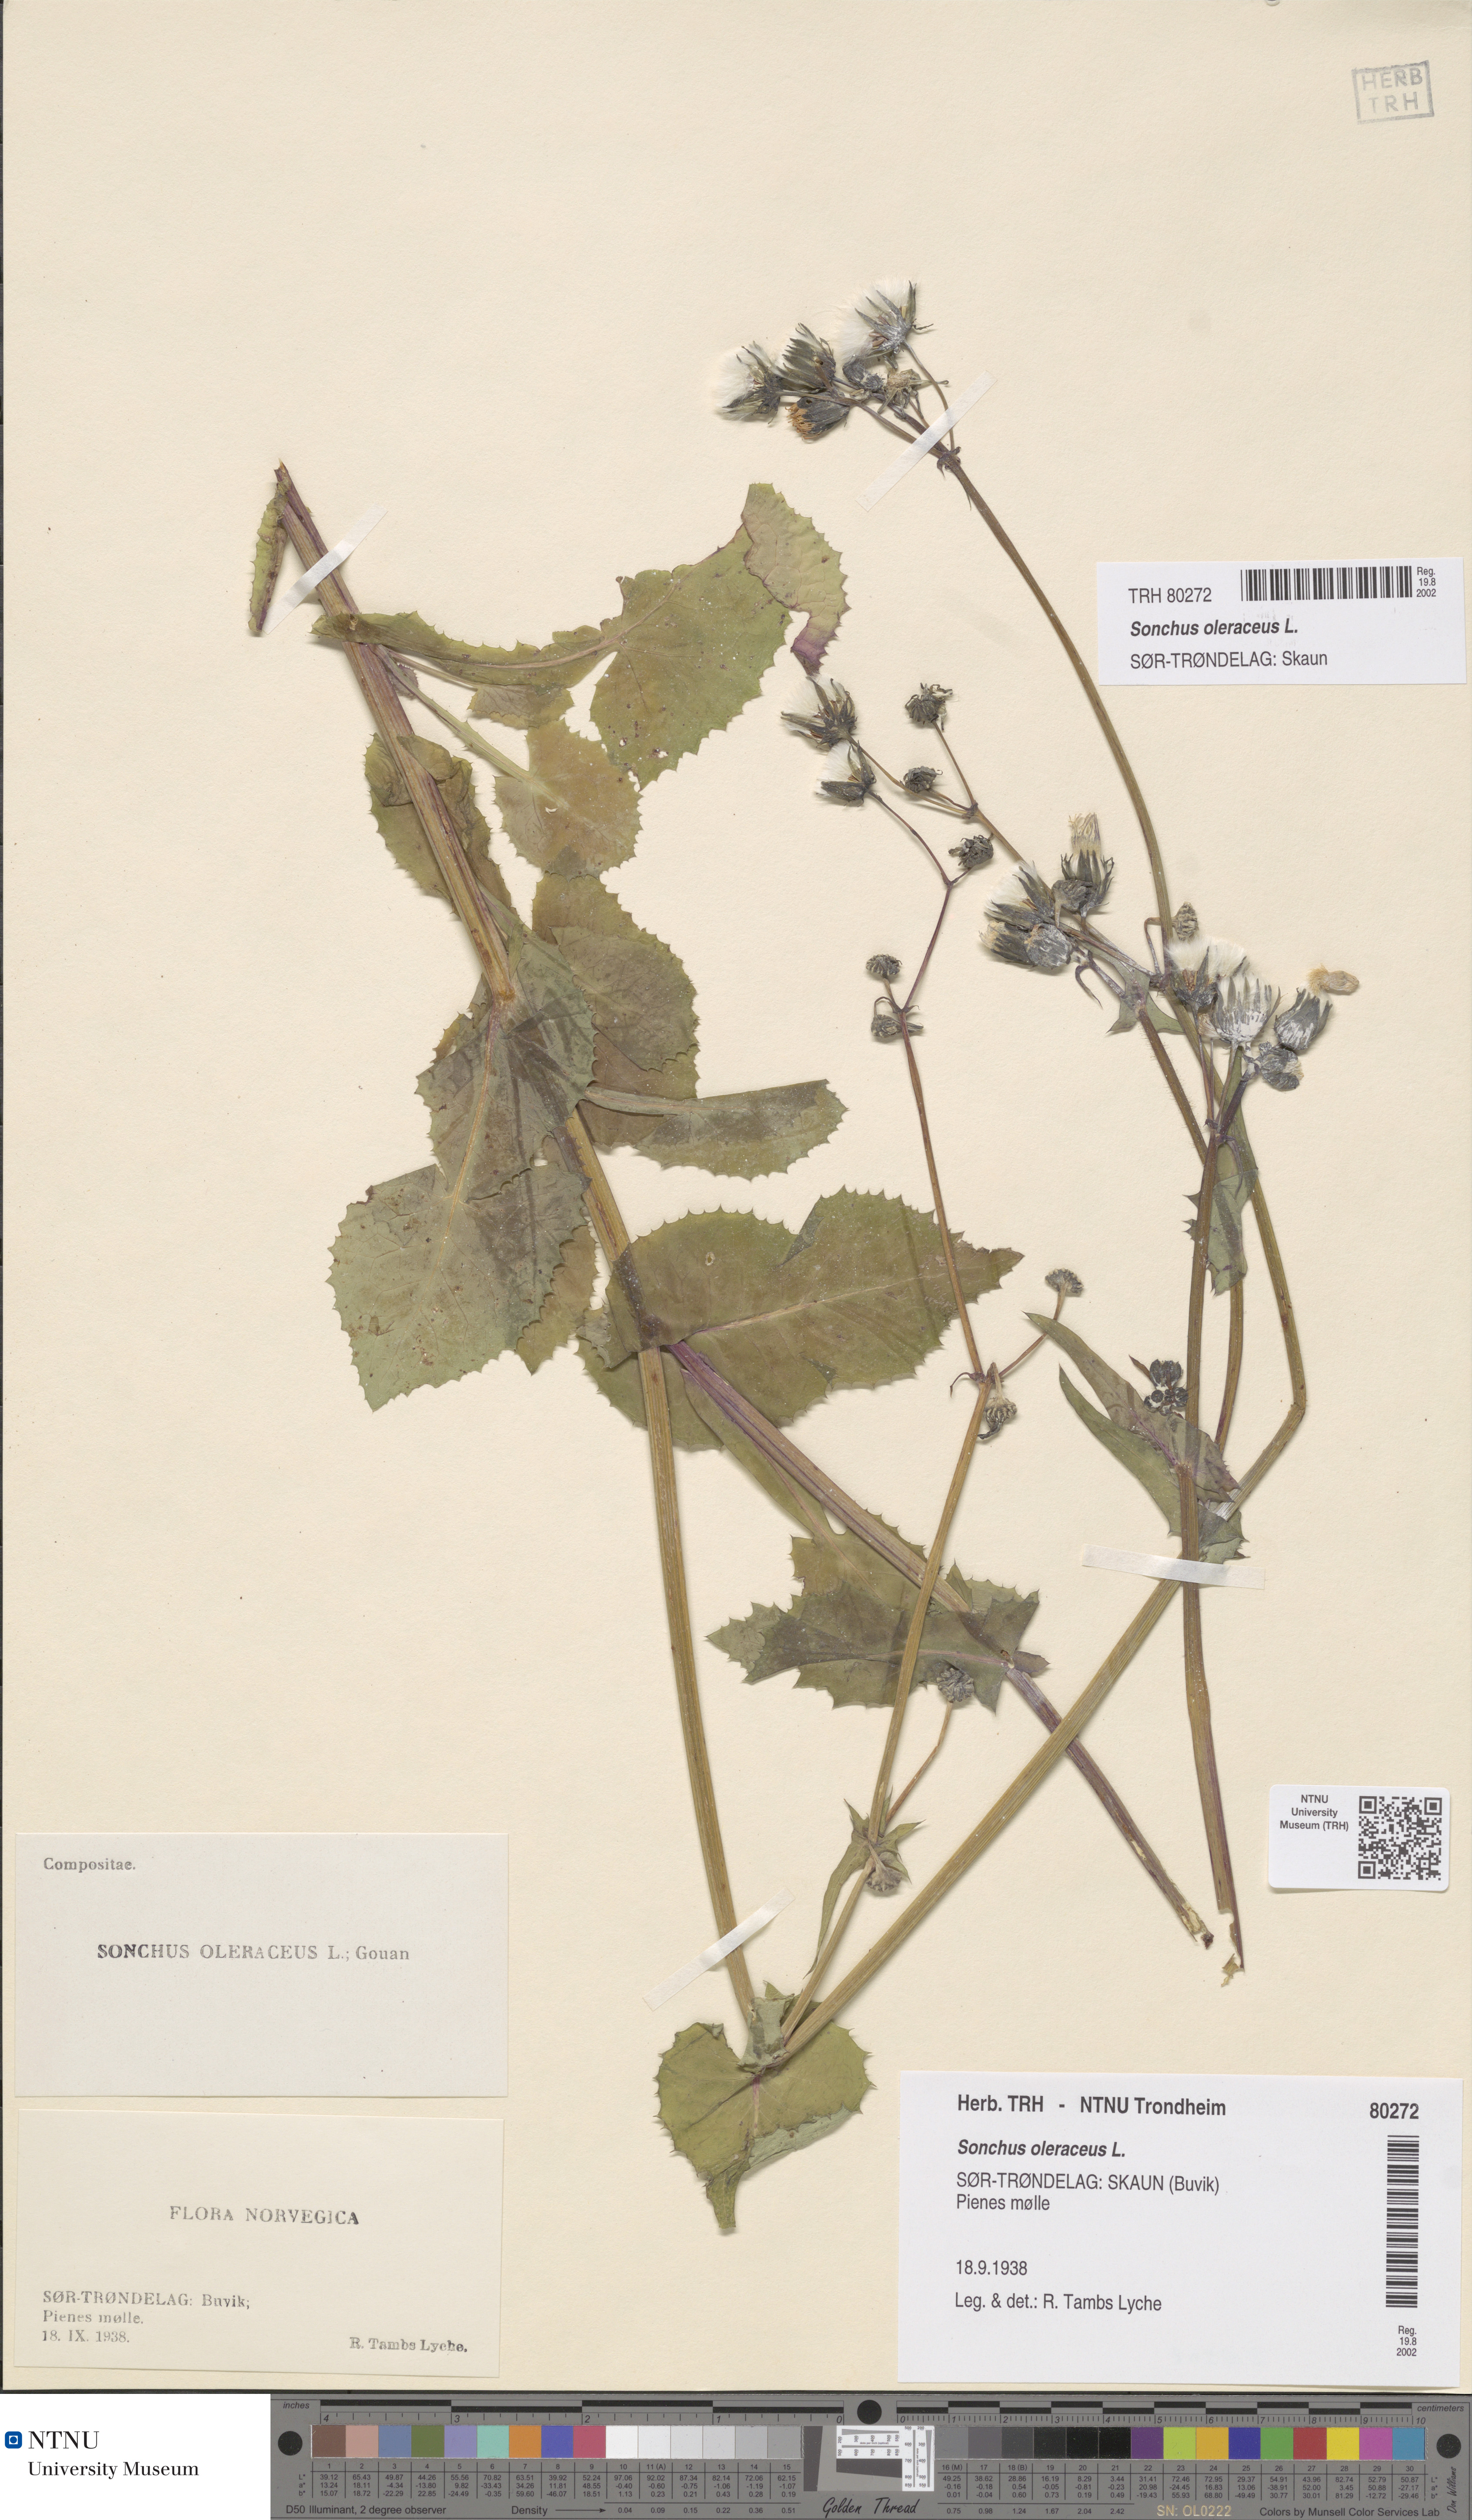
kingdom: Plantae
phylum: Tracheophyta
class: Magnoliopsida
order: Asterales
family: Asteraceae
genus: Sonchus
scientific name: Sonchus oleraceus
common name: Common sowthistle
